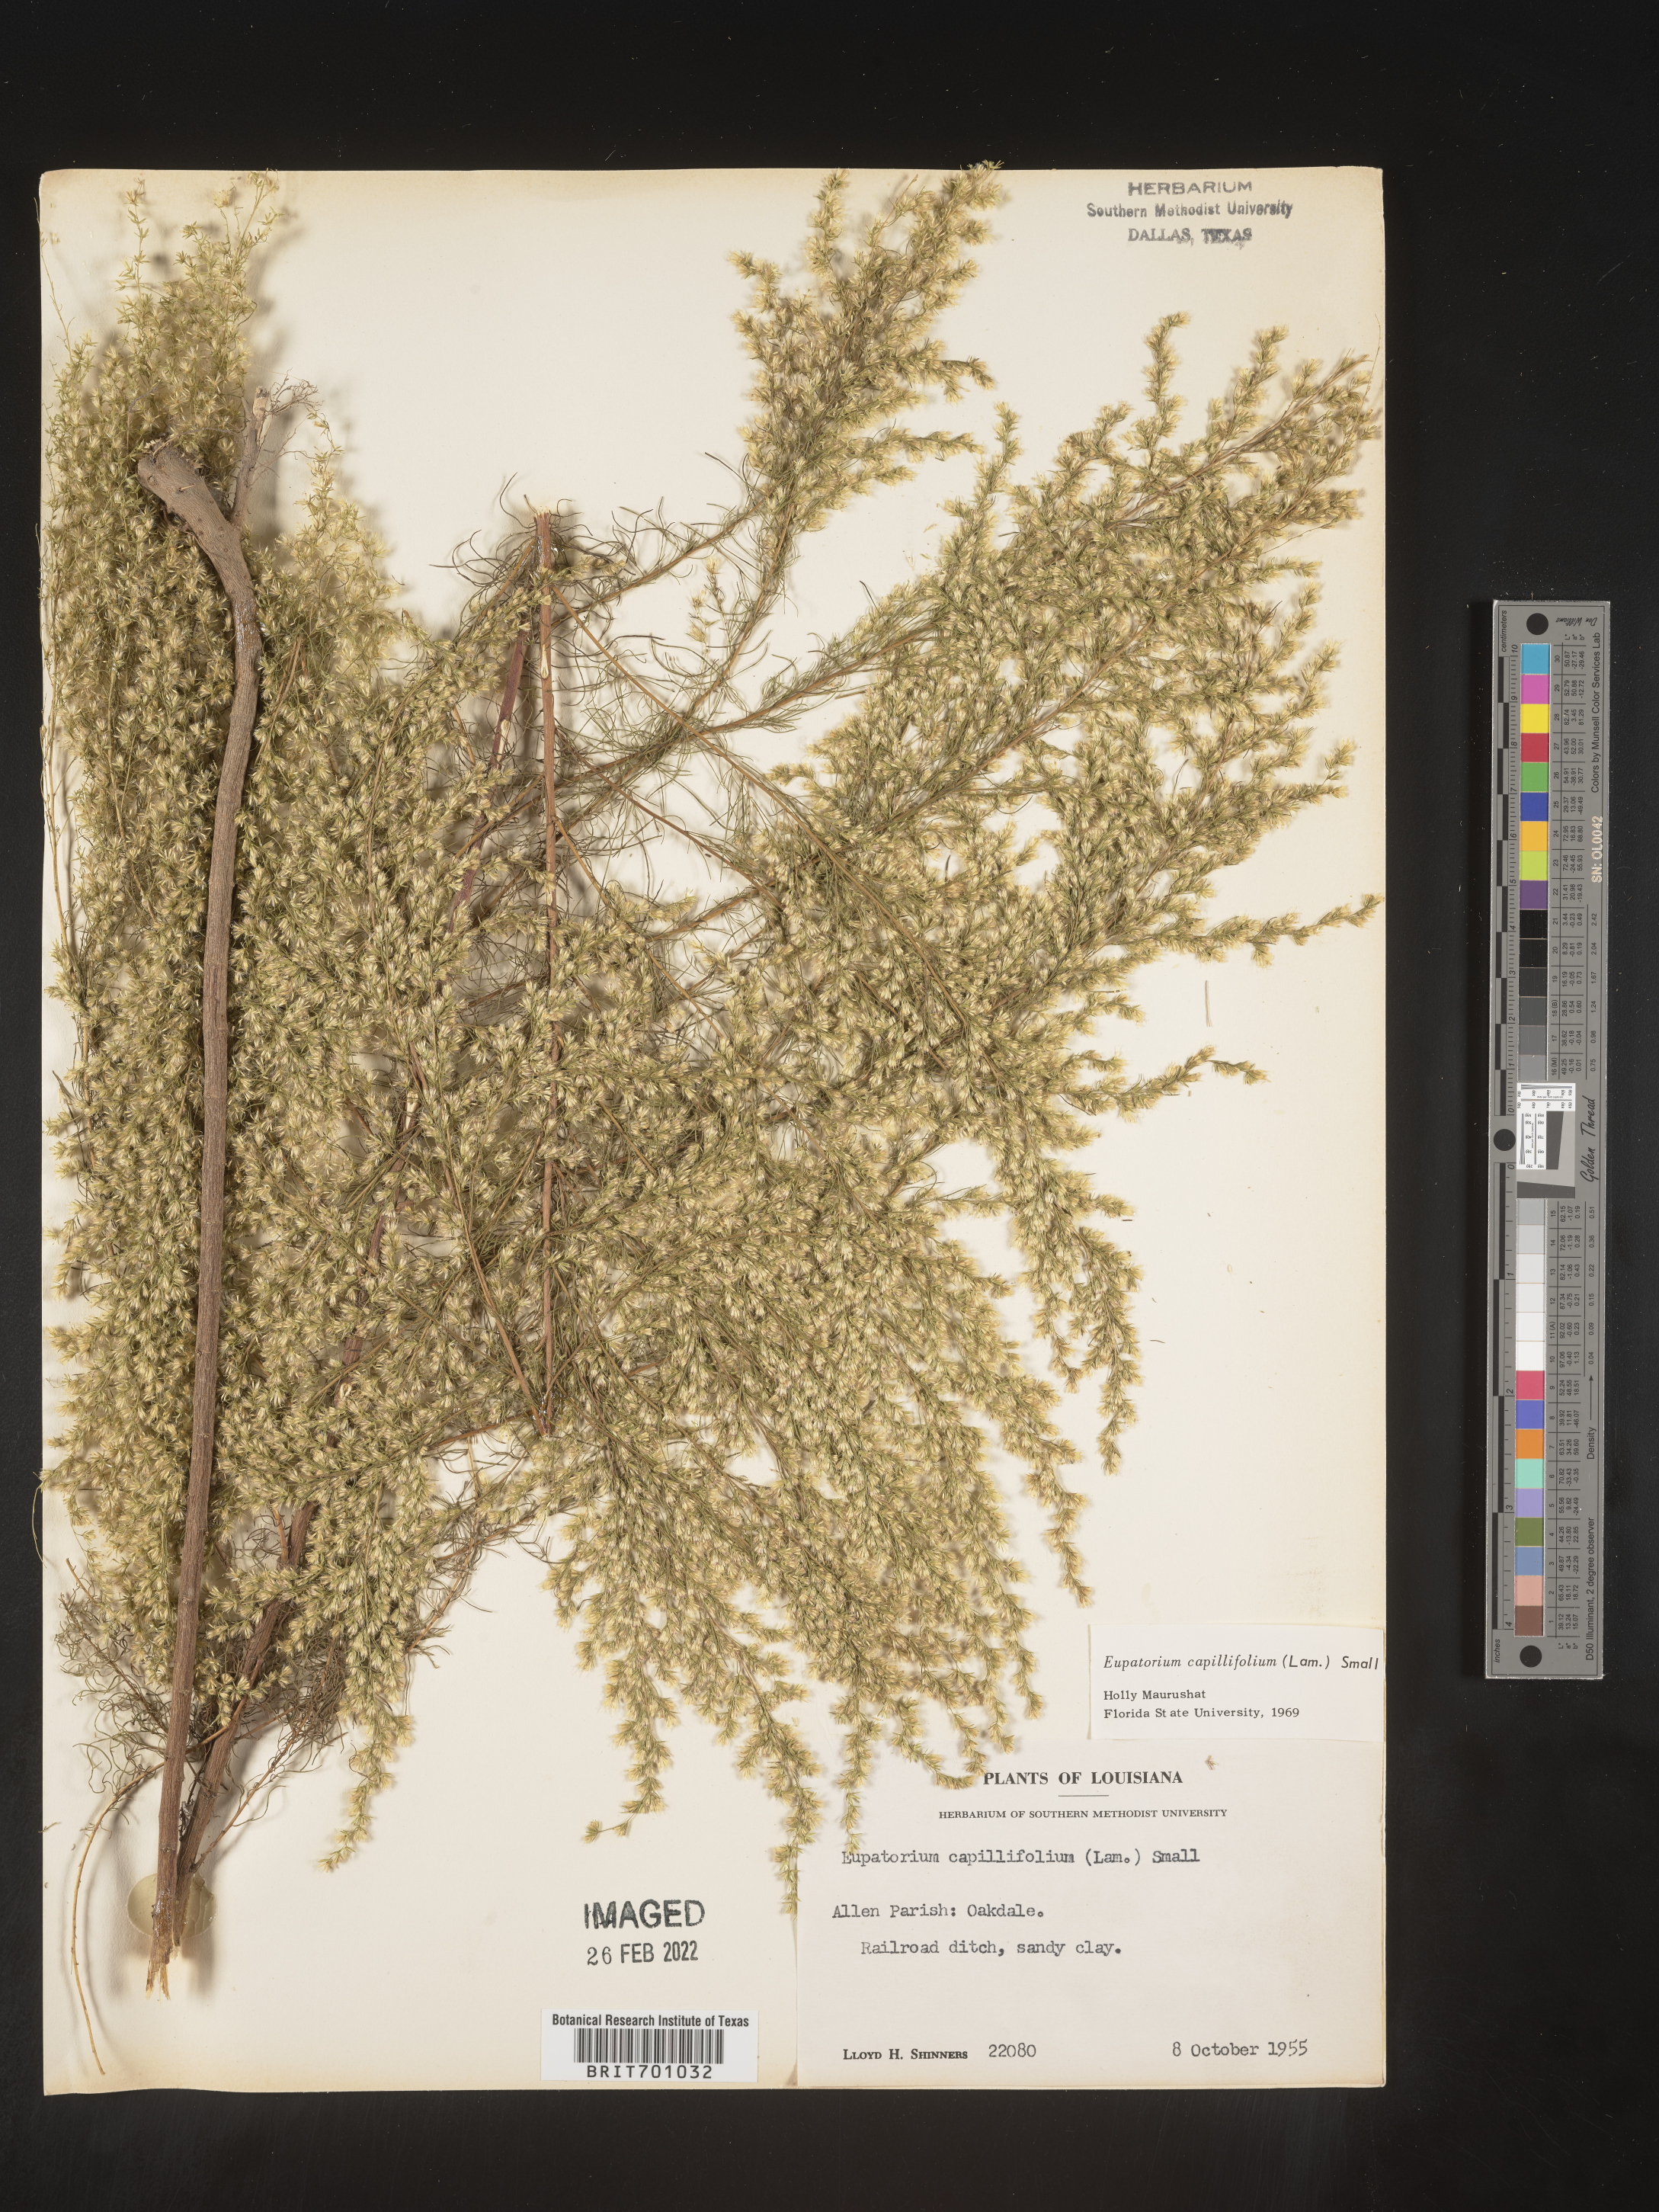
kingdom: Plantae
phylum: Tracheophyta
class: Magnoliopsida
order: Asterales
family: Asteraceae
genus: Eupatorium
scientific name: Eupatorium capillifolium
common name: Dog-fennel
